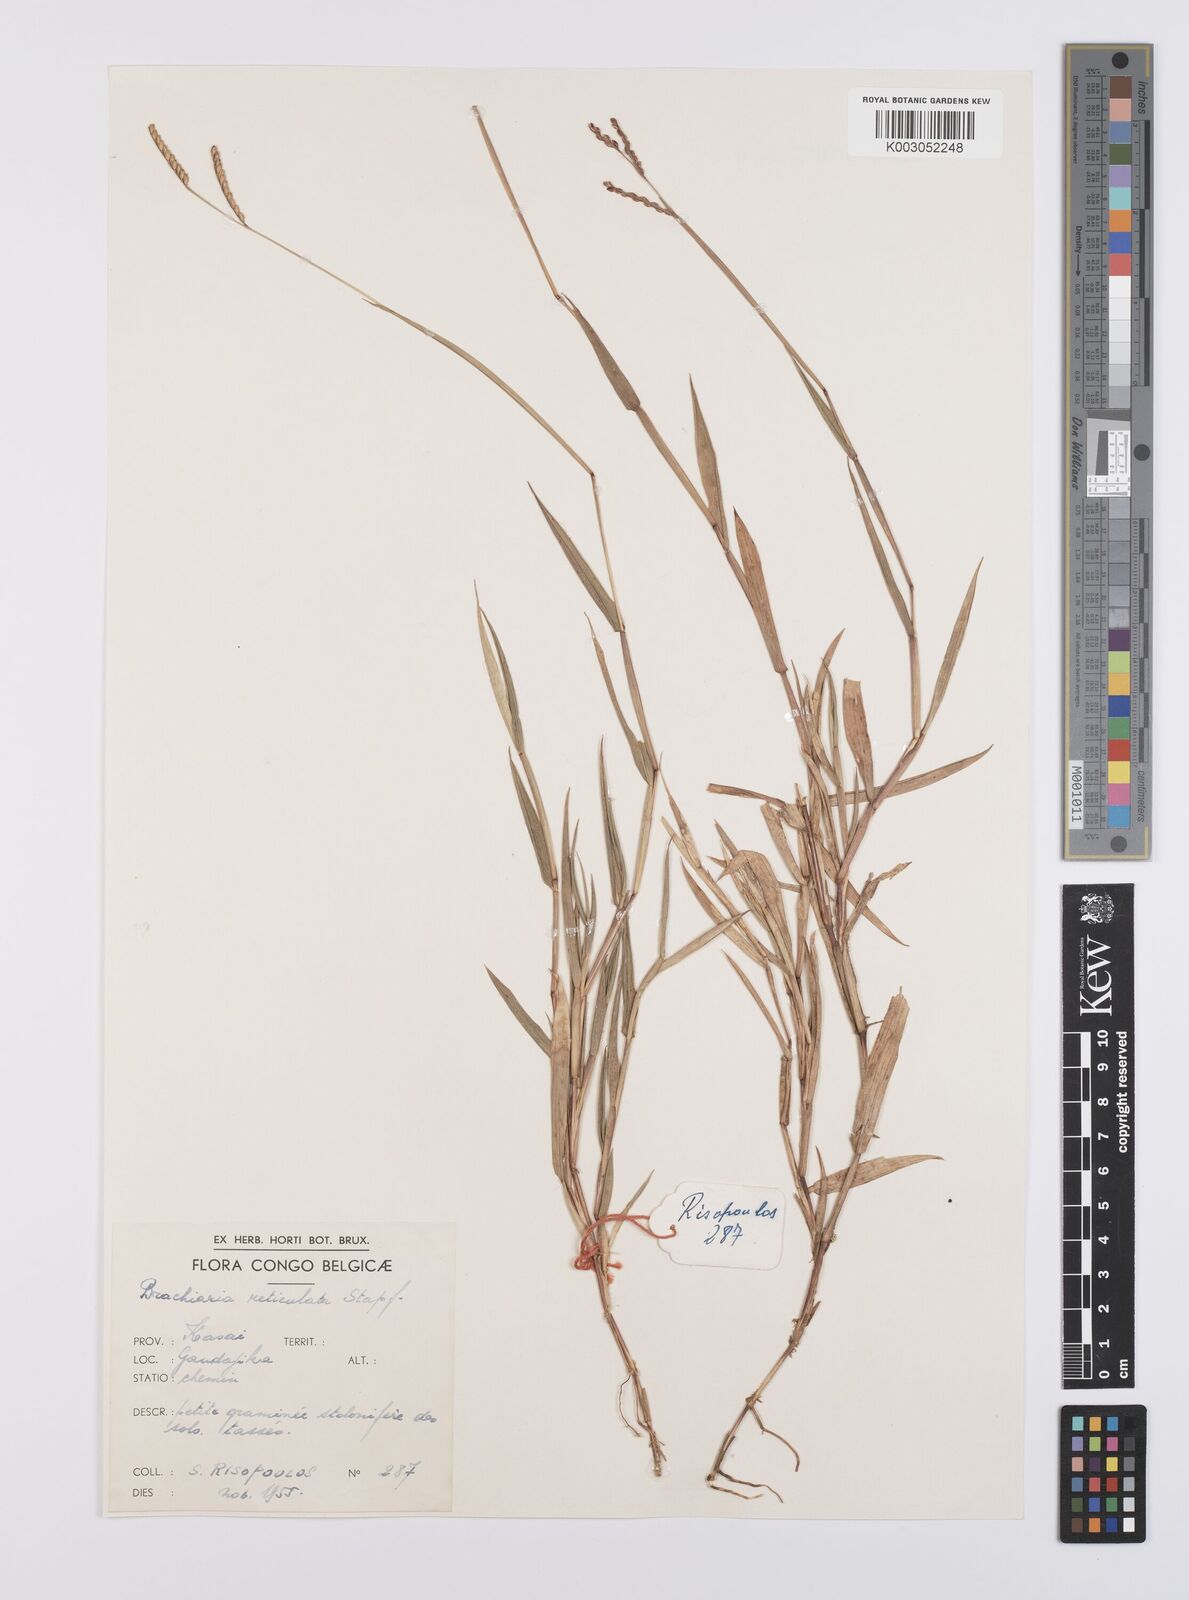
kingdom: Plantae
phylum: Tracheophyta
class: Liliopsida
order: Poales
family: Poaceae
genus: Urochloa
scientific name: Urochloa reticulata
